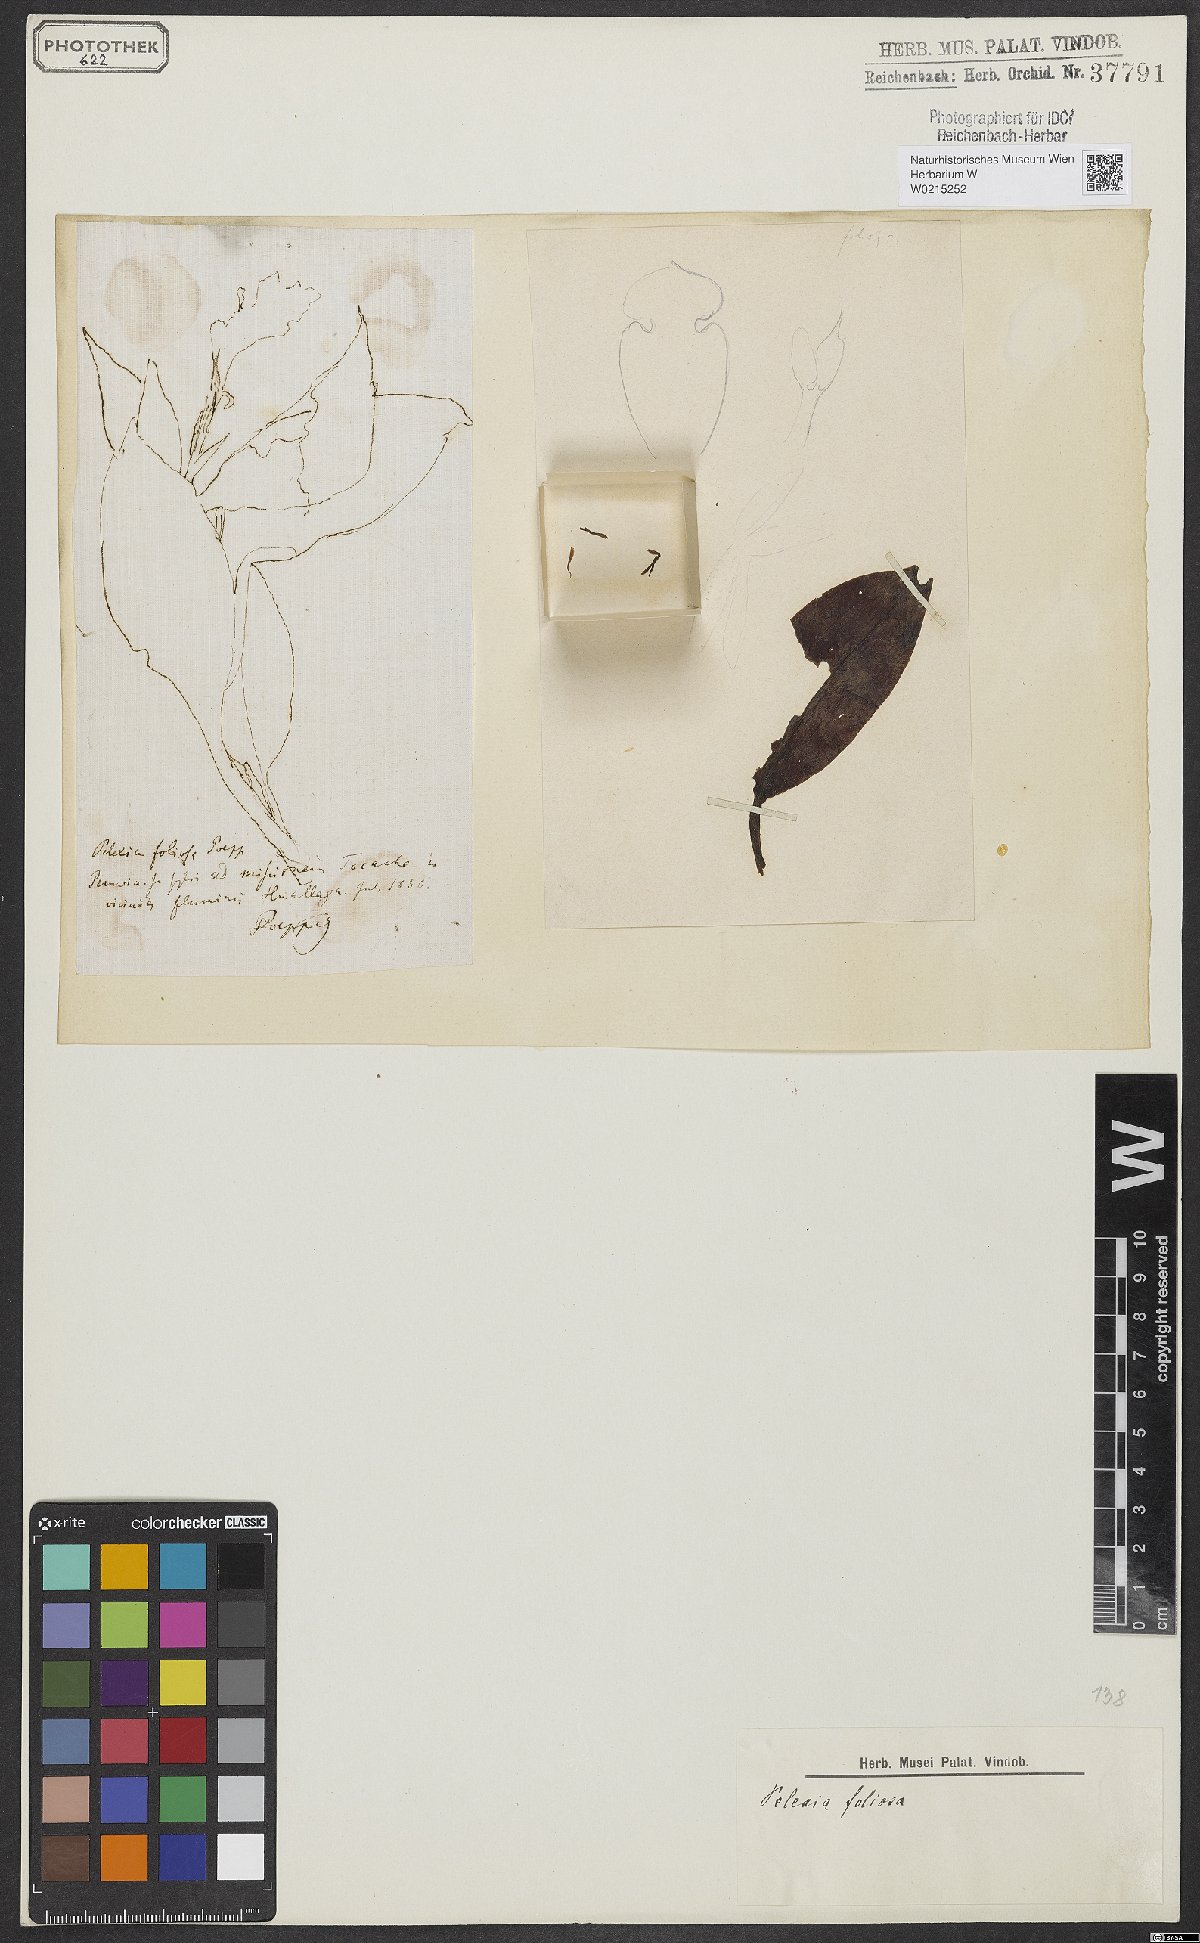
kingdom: Plantae
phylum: Tracheophyta
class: Liliopsida
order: Asparagales
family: Orchidaceae
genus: Aspidogyne
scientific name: Aspidogyne foliosa
